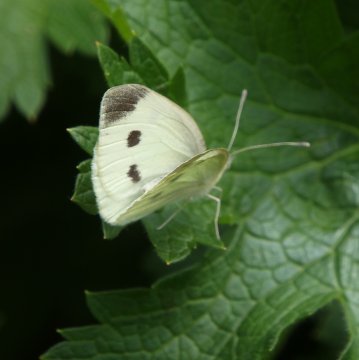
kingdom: Animalia
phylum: Arthropoda
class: Insecta
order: Lepidoptera
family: Pieridae
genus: Pieris
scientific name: Pieris rapae
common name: Cabbage White
